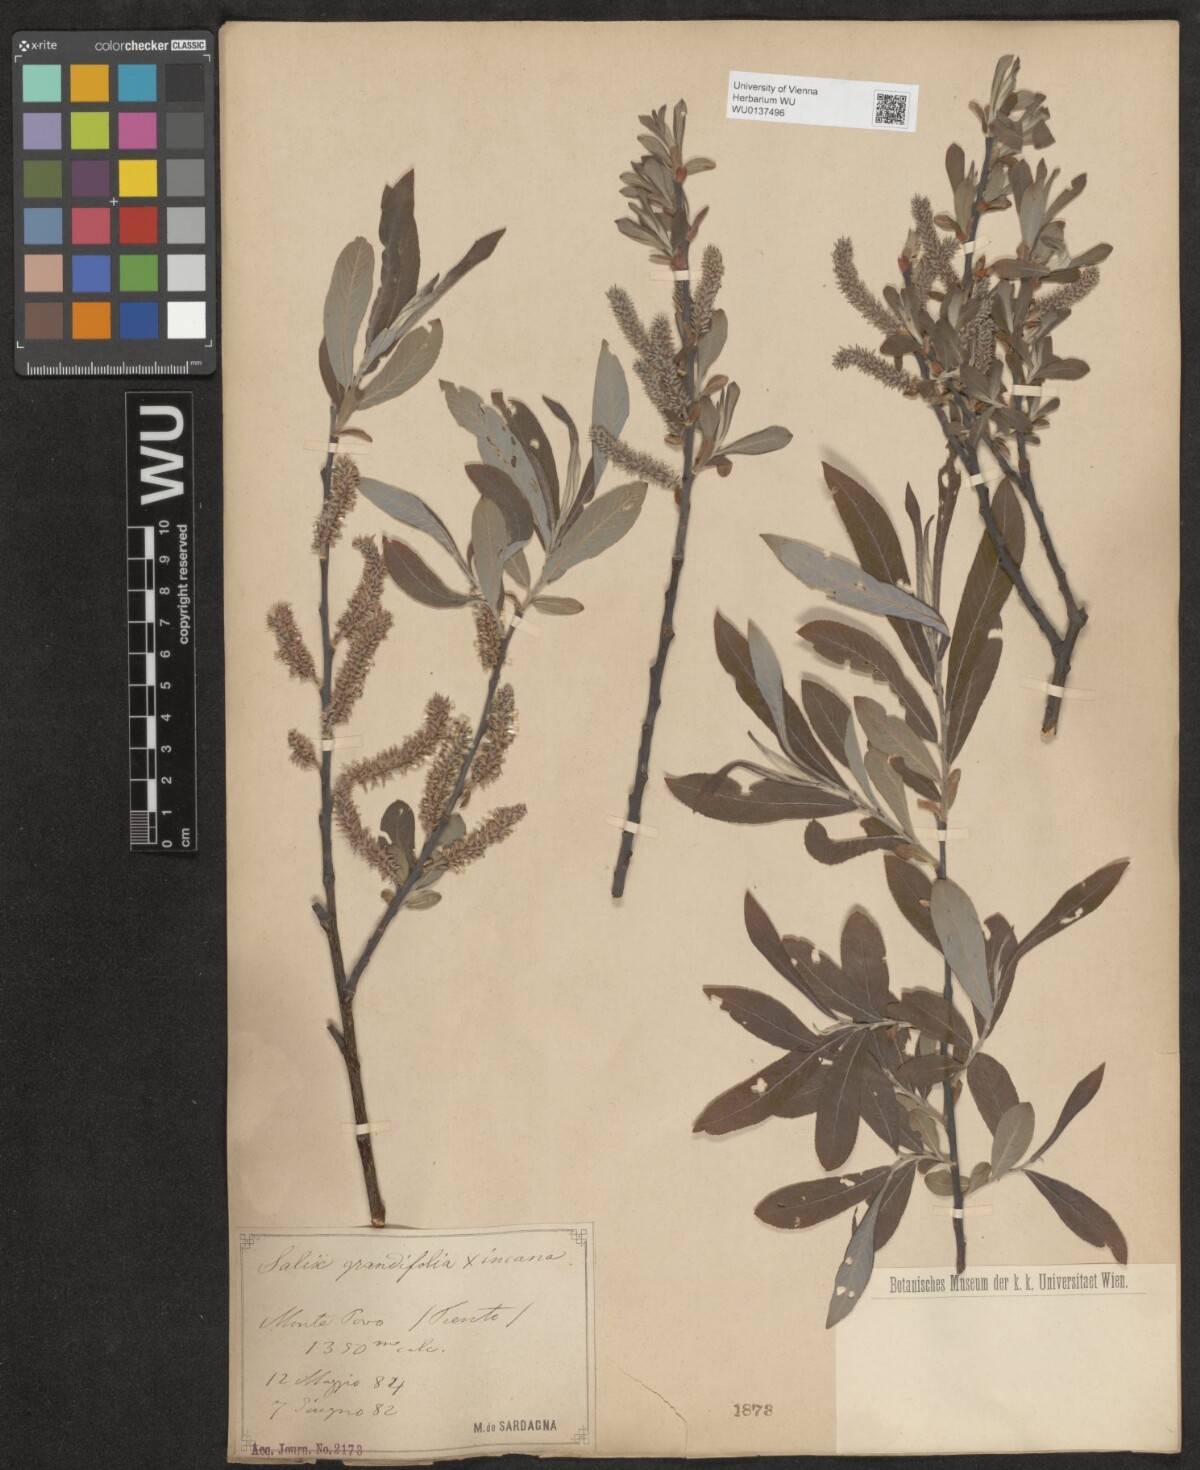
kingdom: Plantae
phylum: Tracheophyta
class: Magnoliopsida
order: Malpighiales
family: Salicaceae
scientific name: Salicaceae
